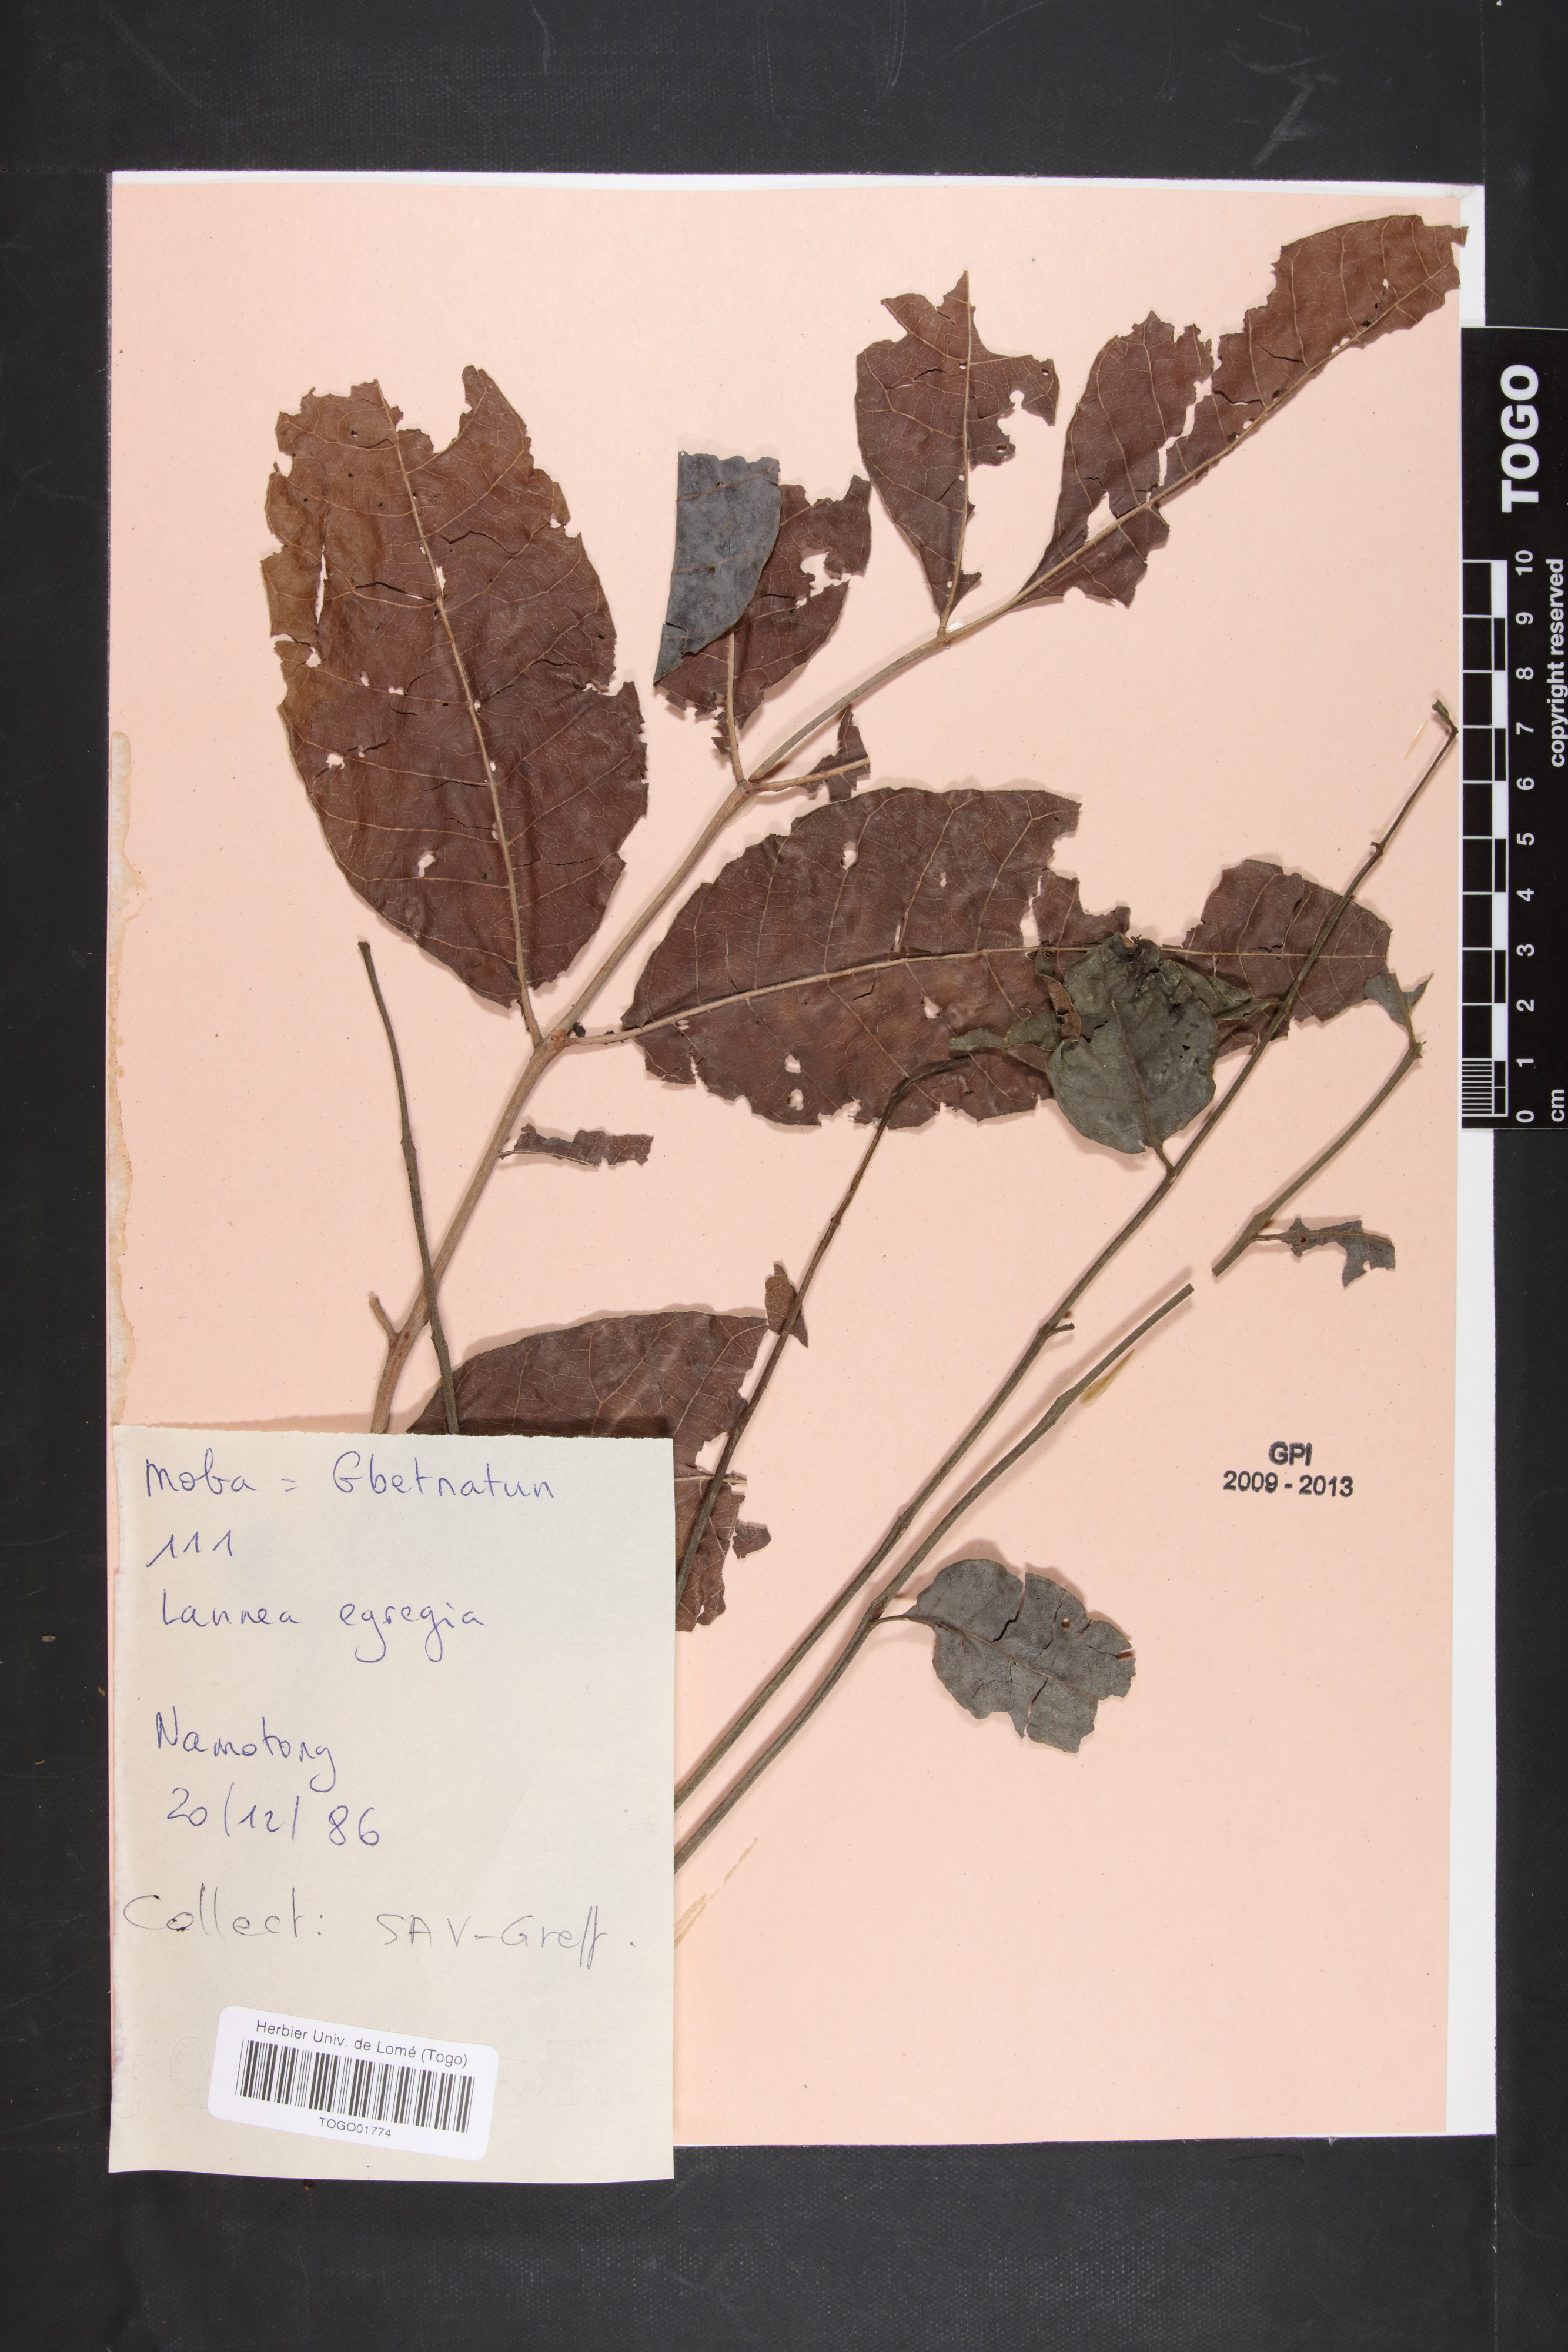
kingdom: Plantae
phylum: Tracheophyta
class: Magnoliopsida
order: Sapindales
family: Anacardiaceae
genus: Lannea
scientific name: Lannea barteri
